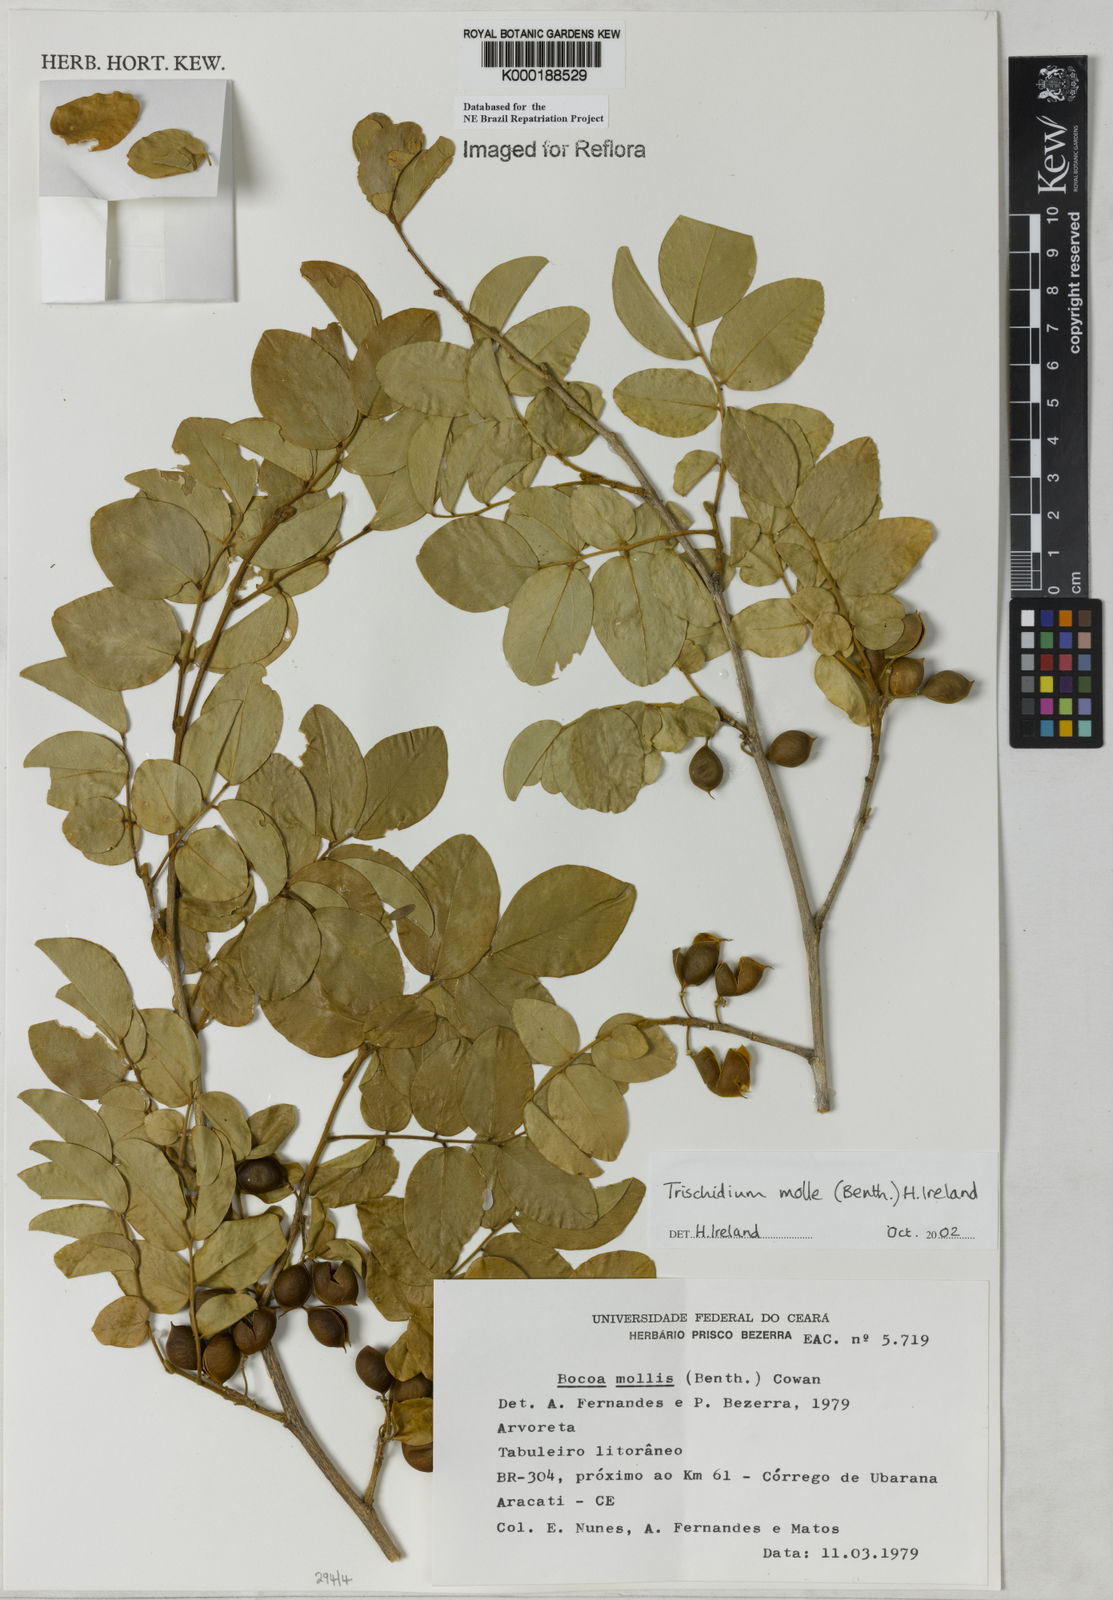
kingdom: Plantae
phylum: Tracheophyta
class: Magnoliopsida
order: Fabales
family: Fabaceae
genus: Trischidium
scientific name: Trischidium
